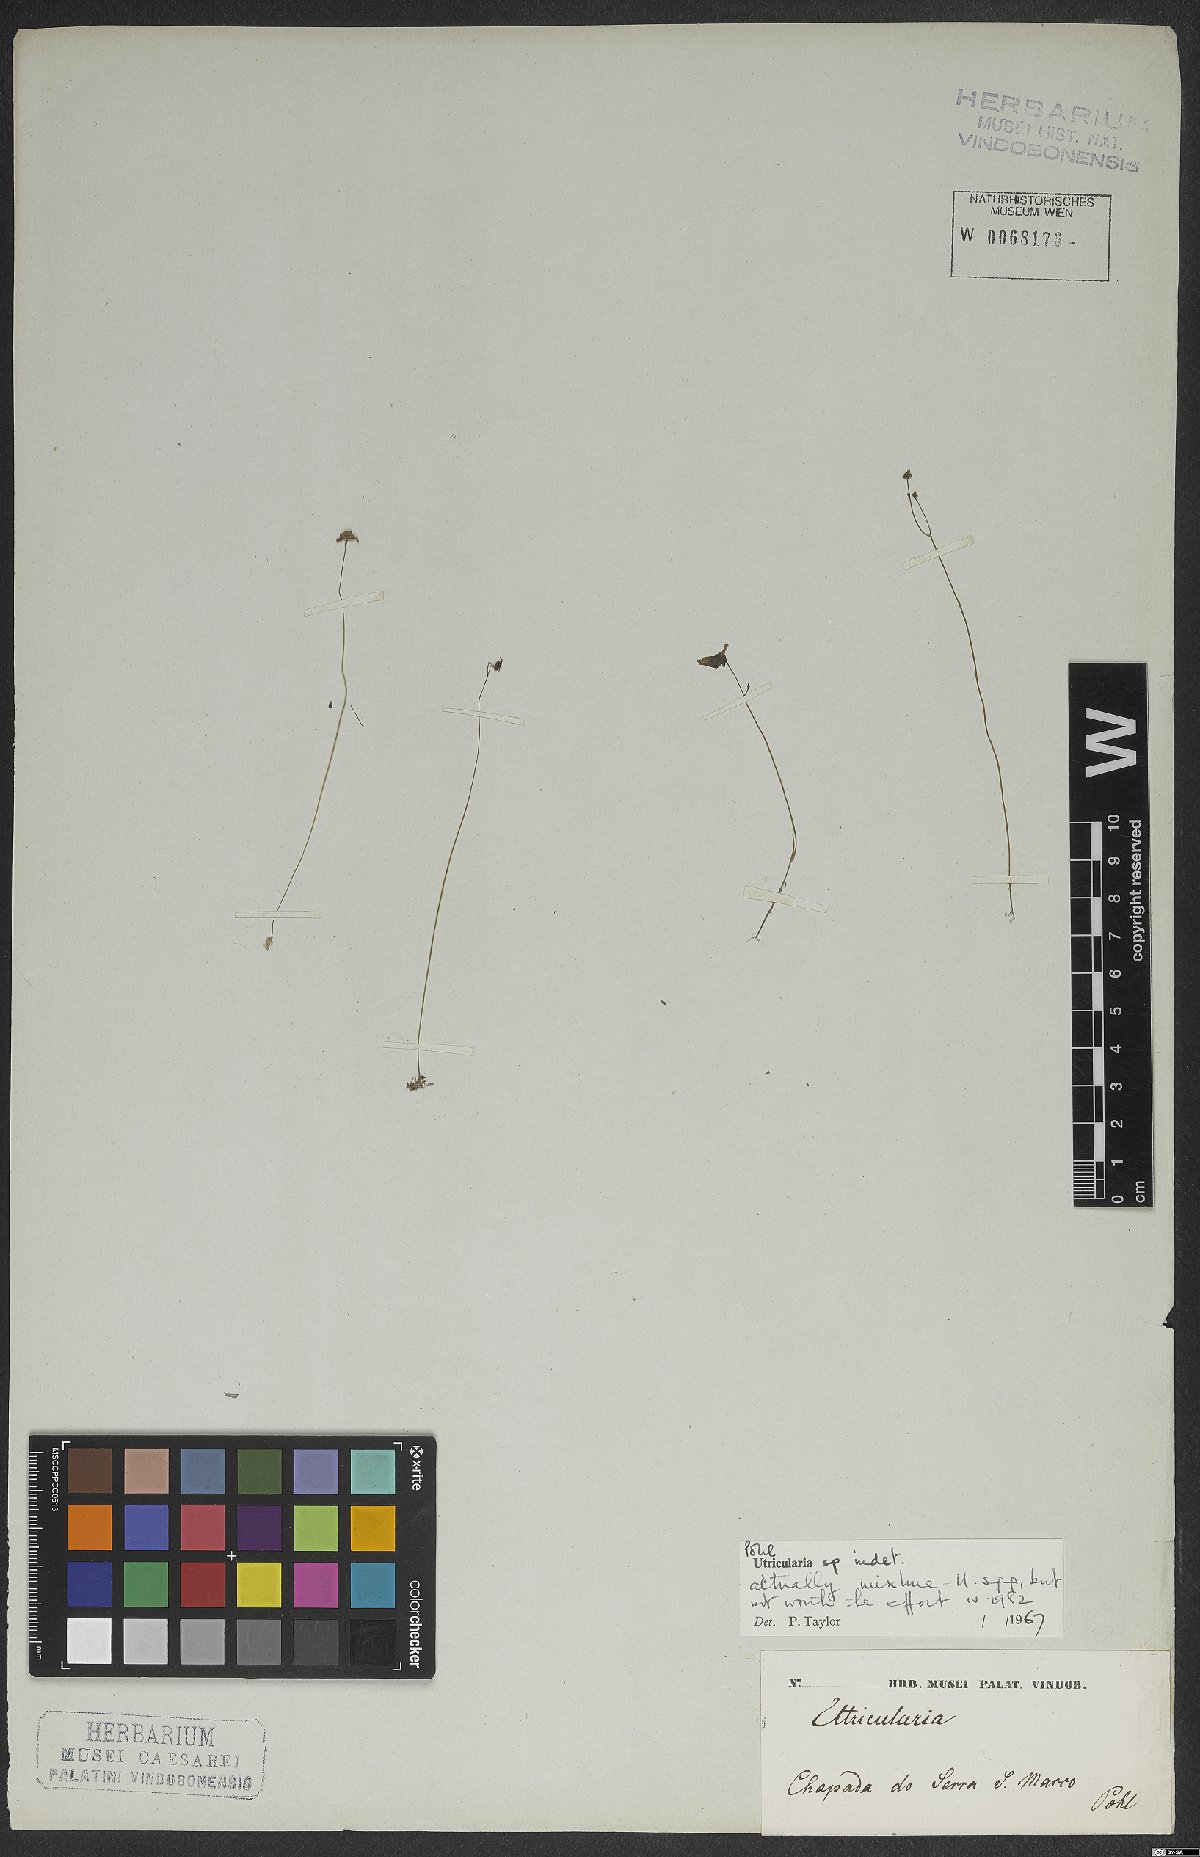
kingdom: Plantae
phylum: Tracheophyta
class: Magnoliopsida
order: Lamiales
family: Lentibulariaceae
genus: Utricularia
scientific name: Utricularia
